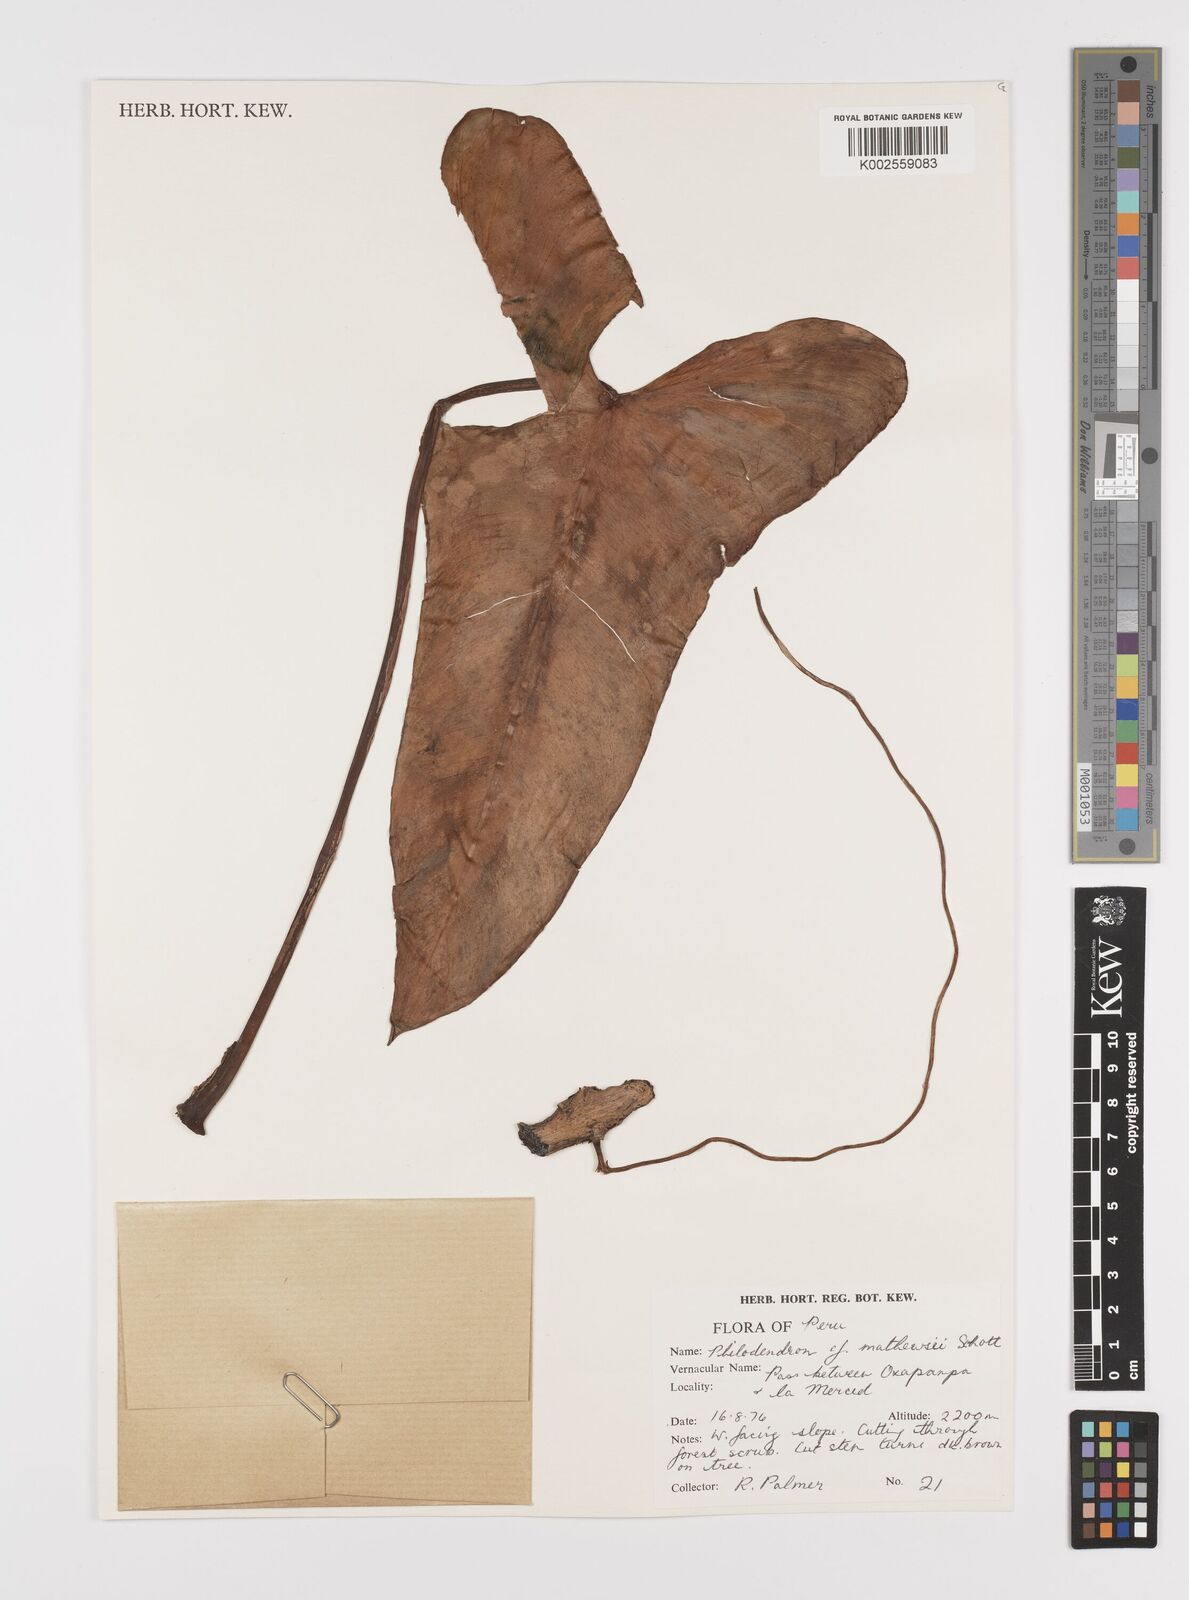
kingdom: Plantae
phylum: Tracheophyta
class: Liliopsida
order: Alismatales
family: Araceae
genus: Philodendron
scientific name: Philodendron mathewsii
